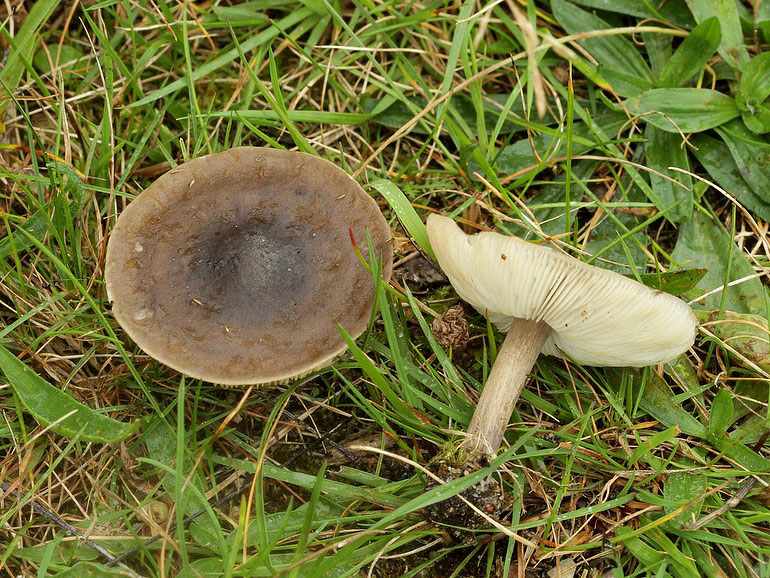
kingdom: Fungi
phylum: Basidiomycota
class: Agaricomycetes
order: Agaricales
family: Tricholomataceae
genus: Melanoleuca
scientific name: Melanoleuca polioleuca
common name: almindelig munkehat
